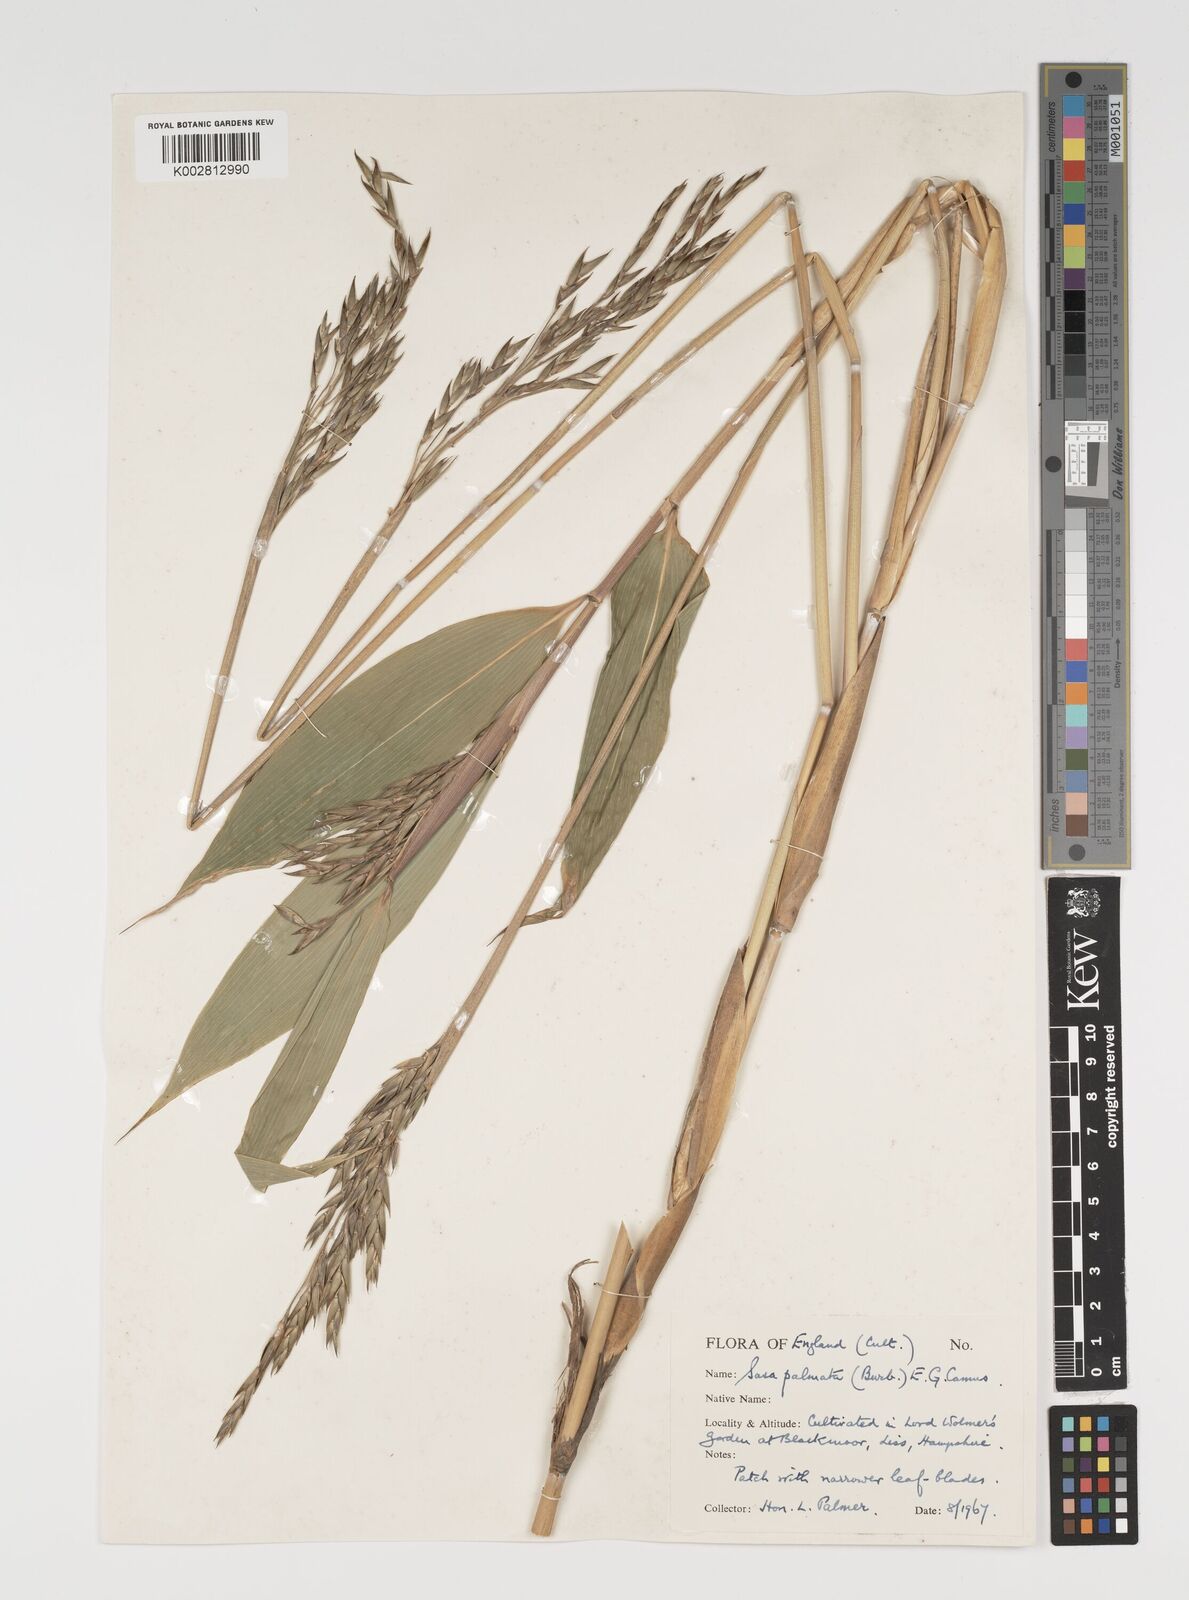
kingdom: Plantae
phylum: Tracheophyta
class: Liliopsida
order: Poales
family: Poaceae
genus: Sasa
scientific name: Sasa palmata
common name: Broad-leaved bamboo
